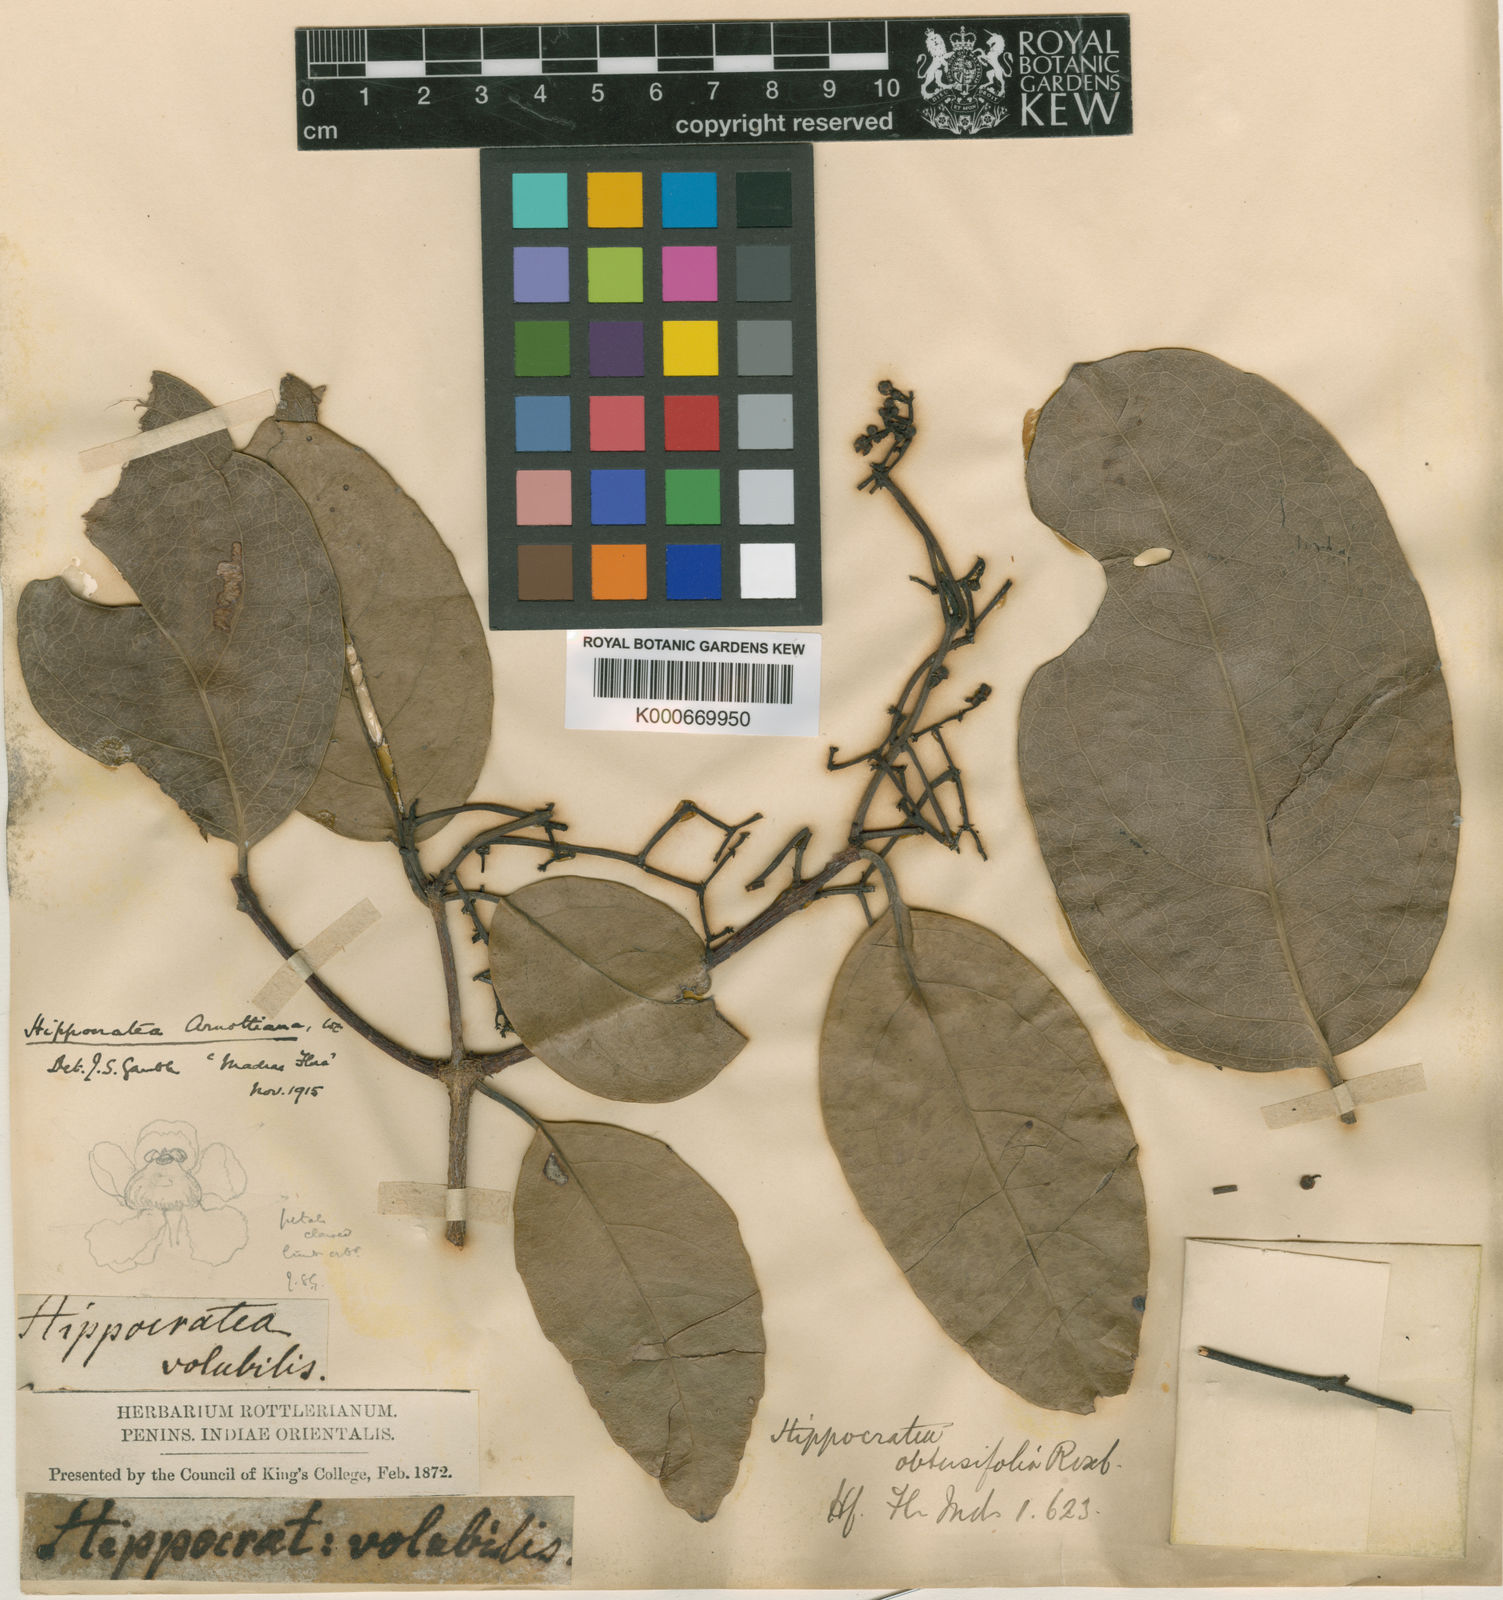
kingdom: Plantae
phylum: Tracheophyta
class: Magnoliopsida
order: Celastrales
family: Celastraceae
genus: Pristimera
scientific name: Pristimera arnottiana
